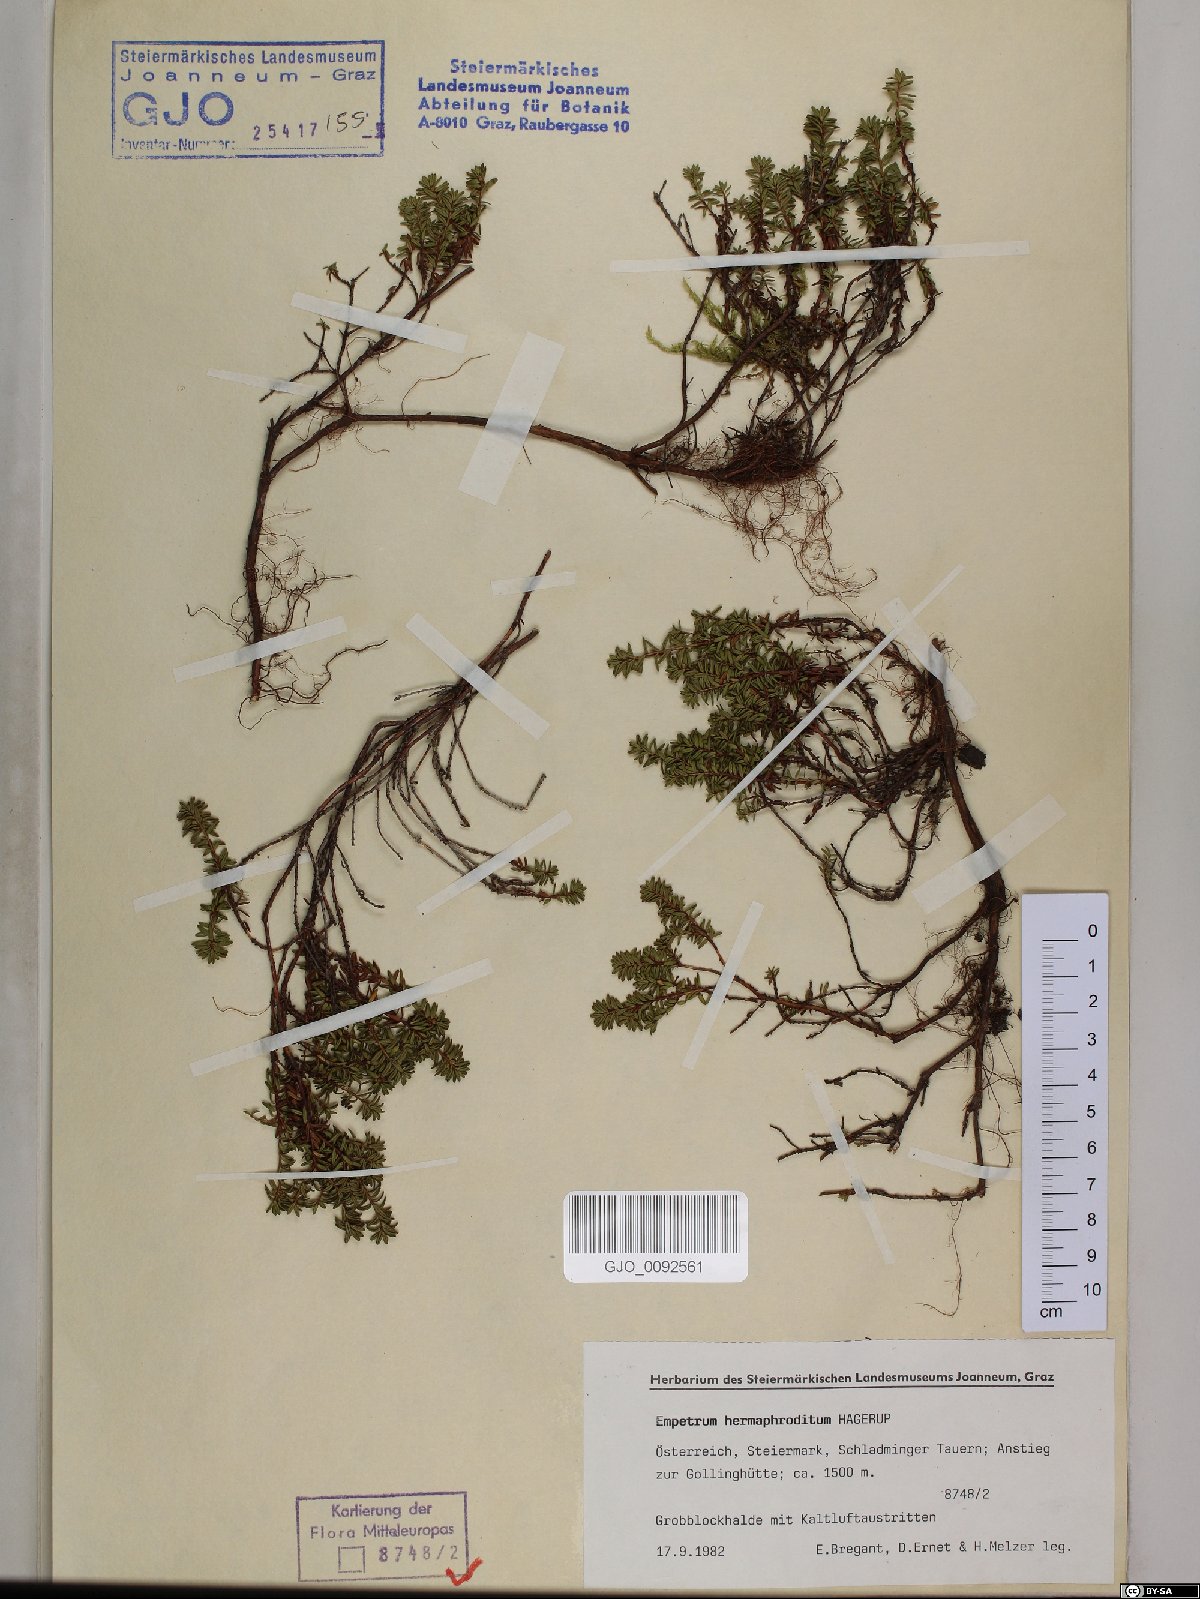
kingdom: Plantae
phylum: Tracheophyta
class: Magnoliopsida
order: Ericales
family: Ericaceae
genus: Empetrum
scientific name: Empetrum hermaphroditum
